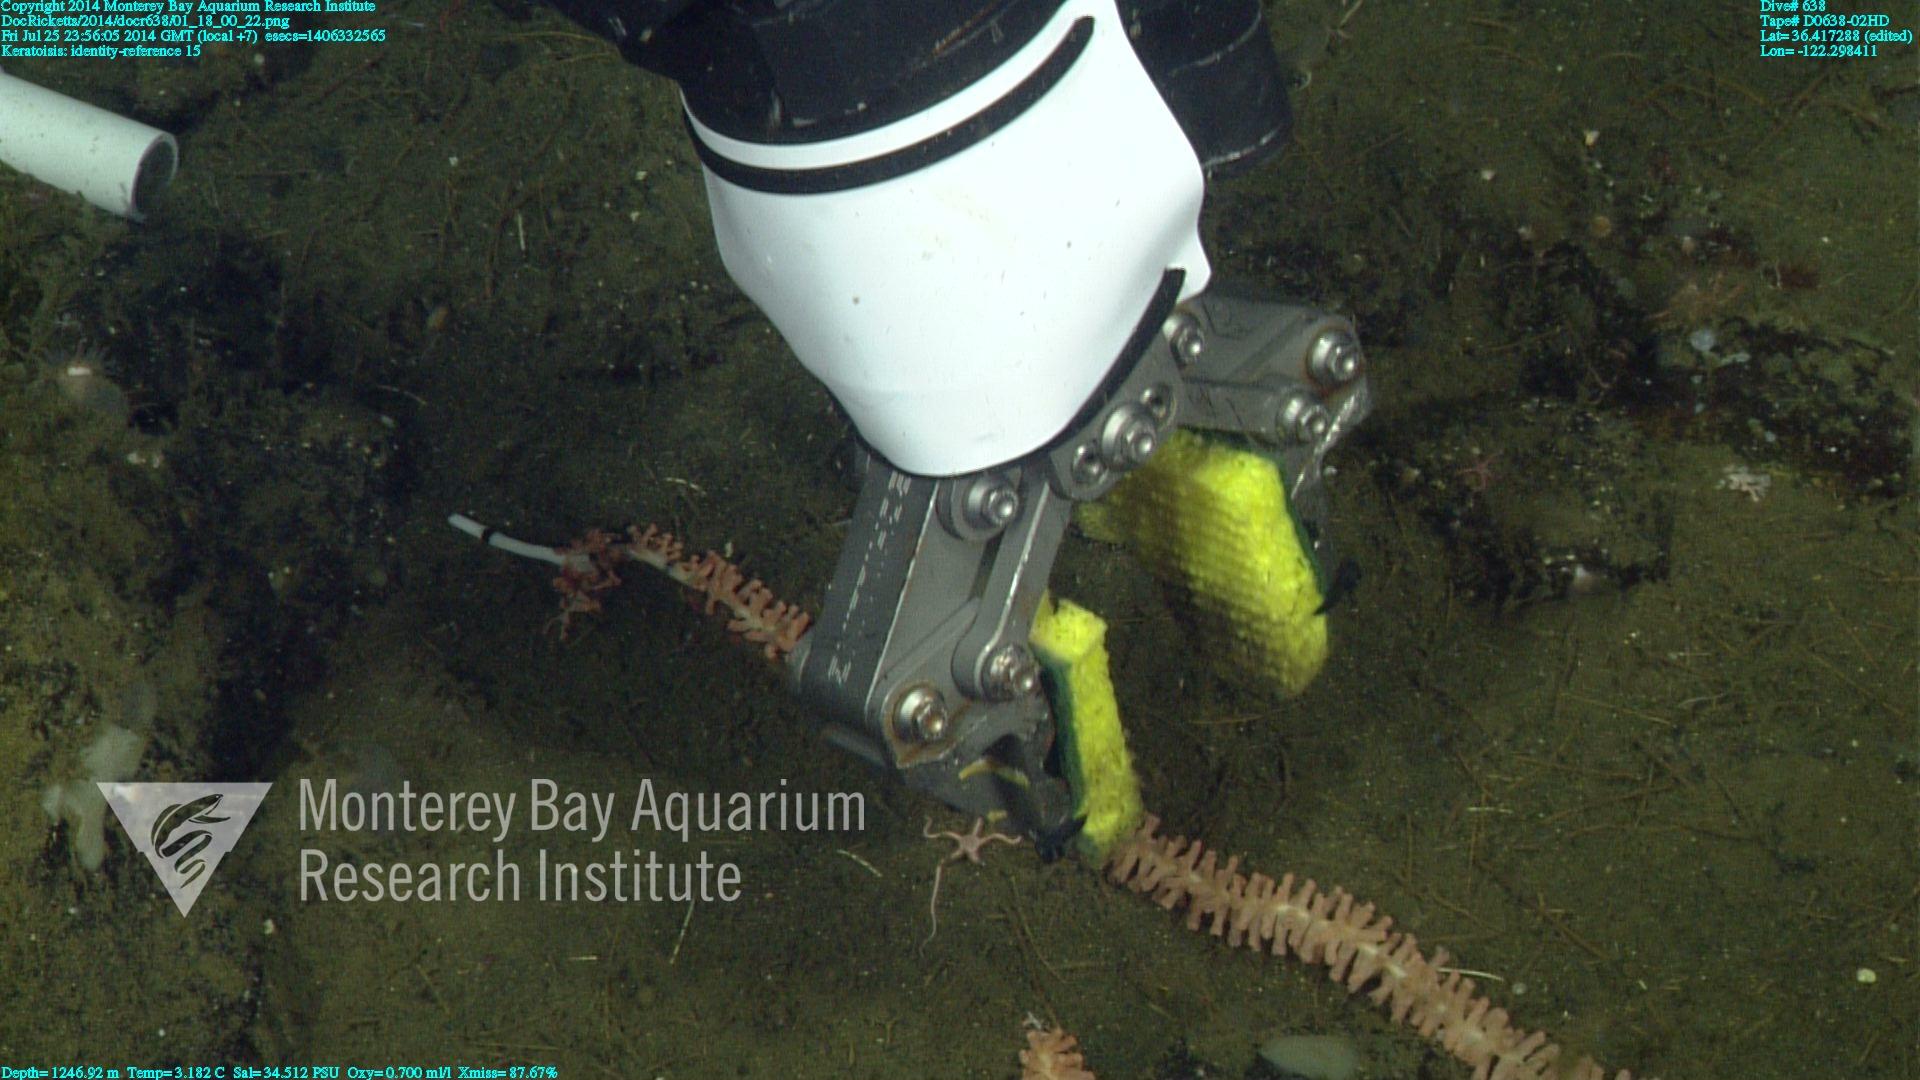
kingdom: Animalia
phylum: Cnidaria
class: Anthozoa
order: Scleralcyonacea
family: Keratoisididae
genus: Keratoisis
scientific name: Keratoisis
